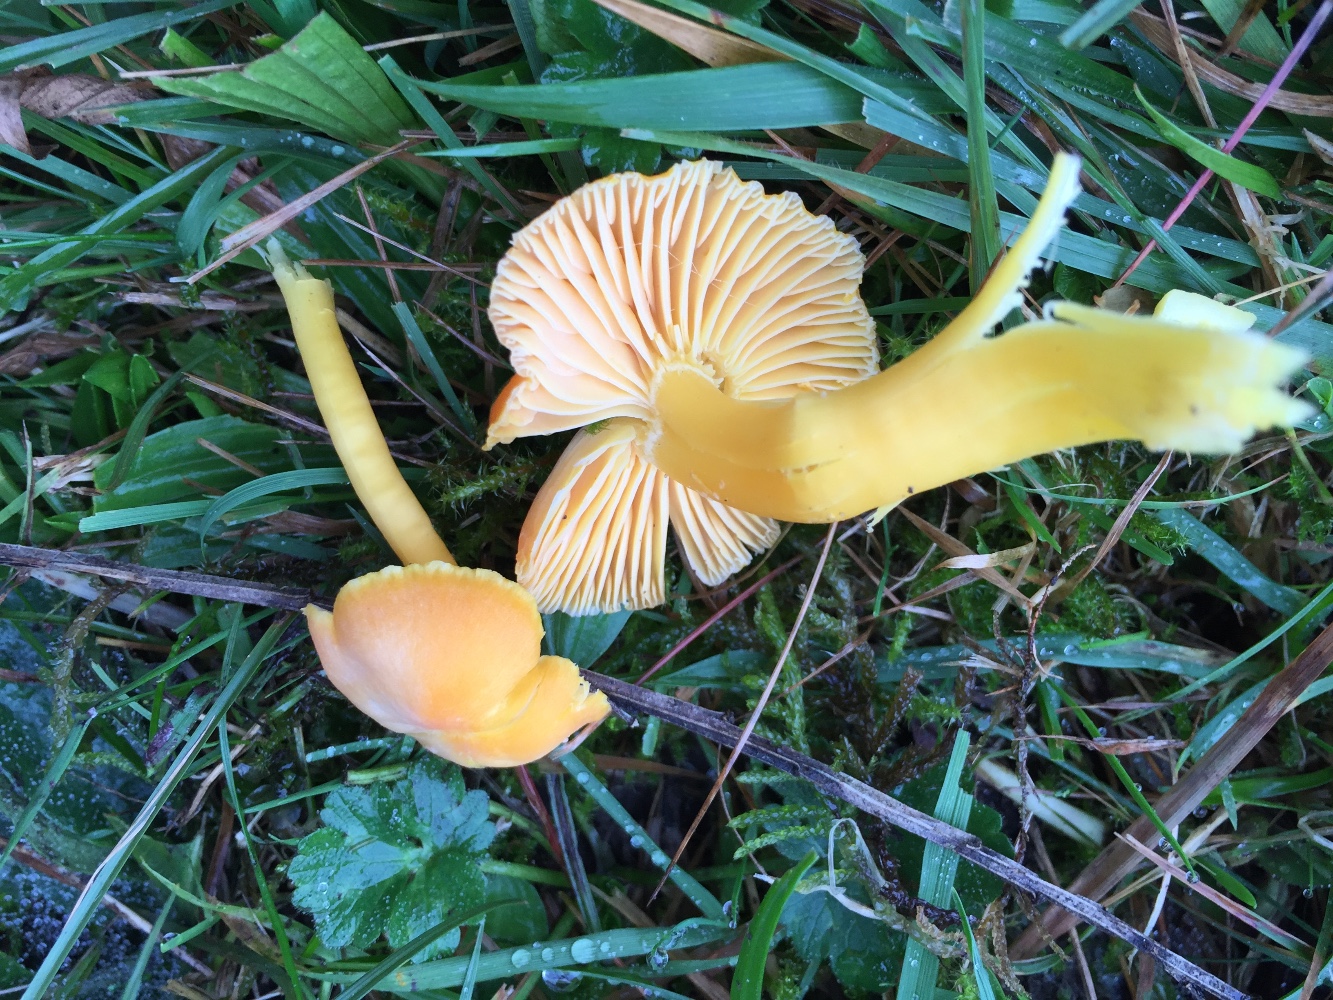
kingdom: Fungi
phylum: Basidiomycota
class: Agaricomycetes
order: Agaricales
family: Hygrophoraceae
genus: Hygrocybe
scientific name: Hygrocybe reidii
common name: honning-vokshat
